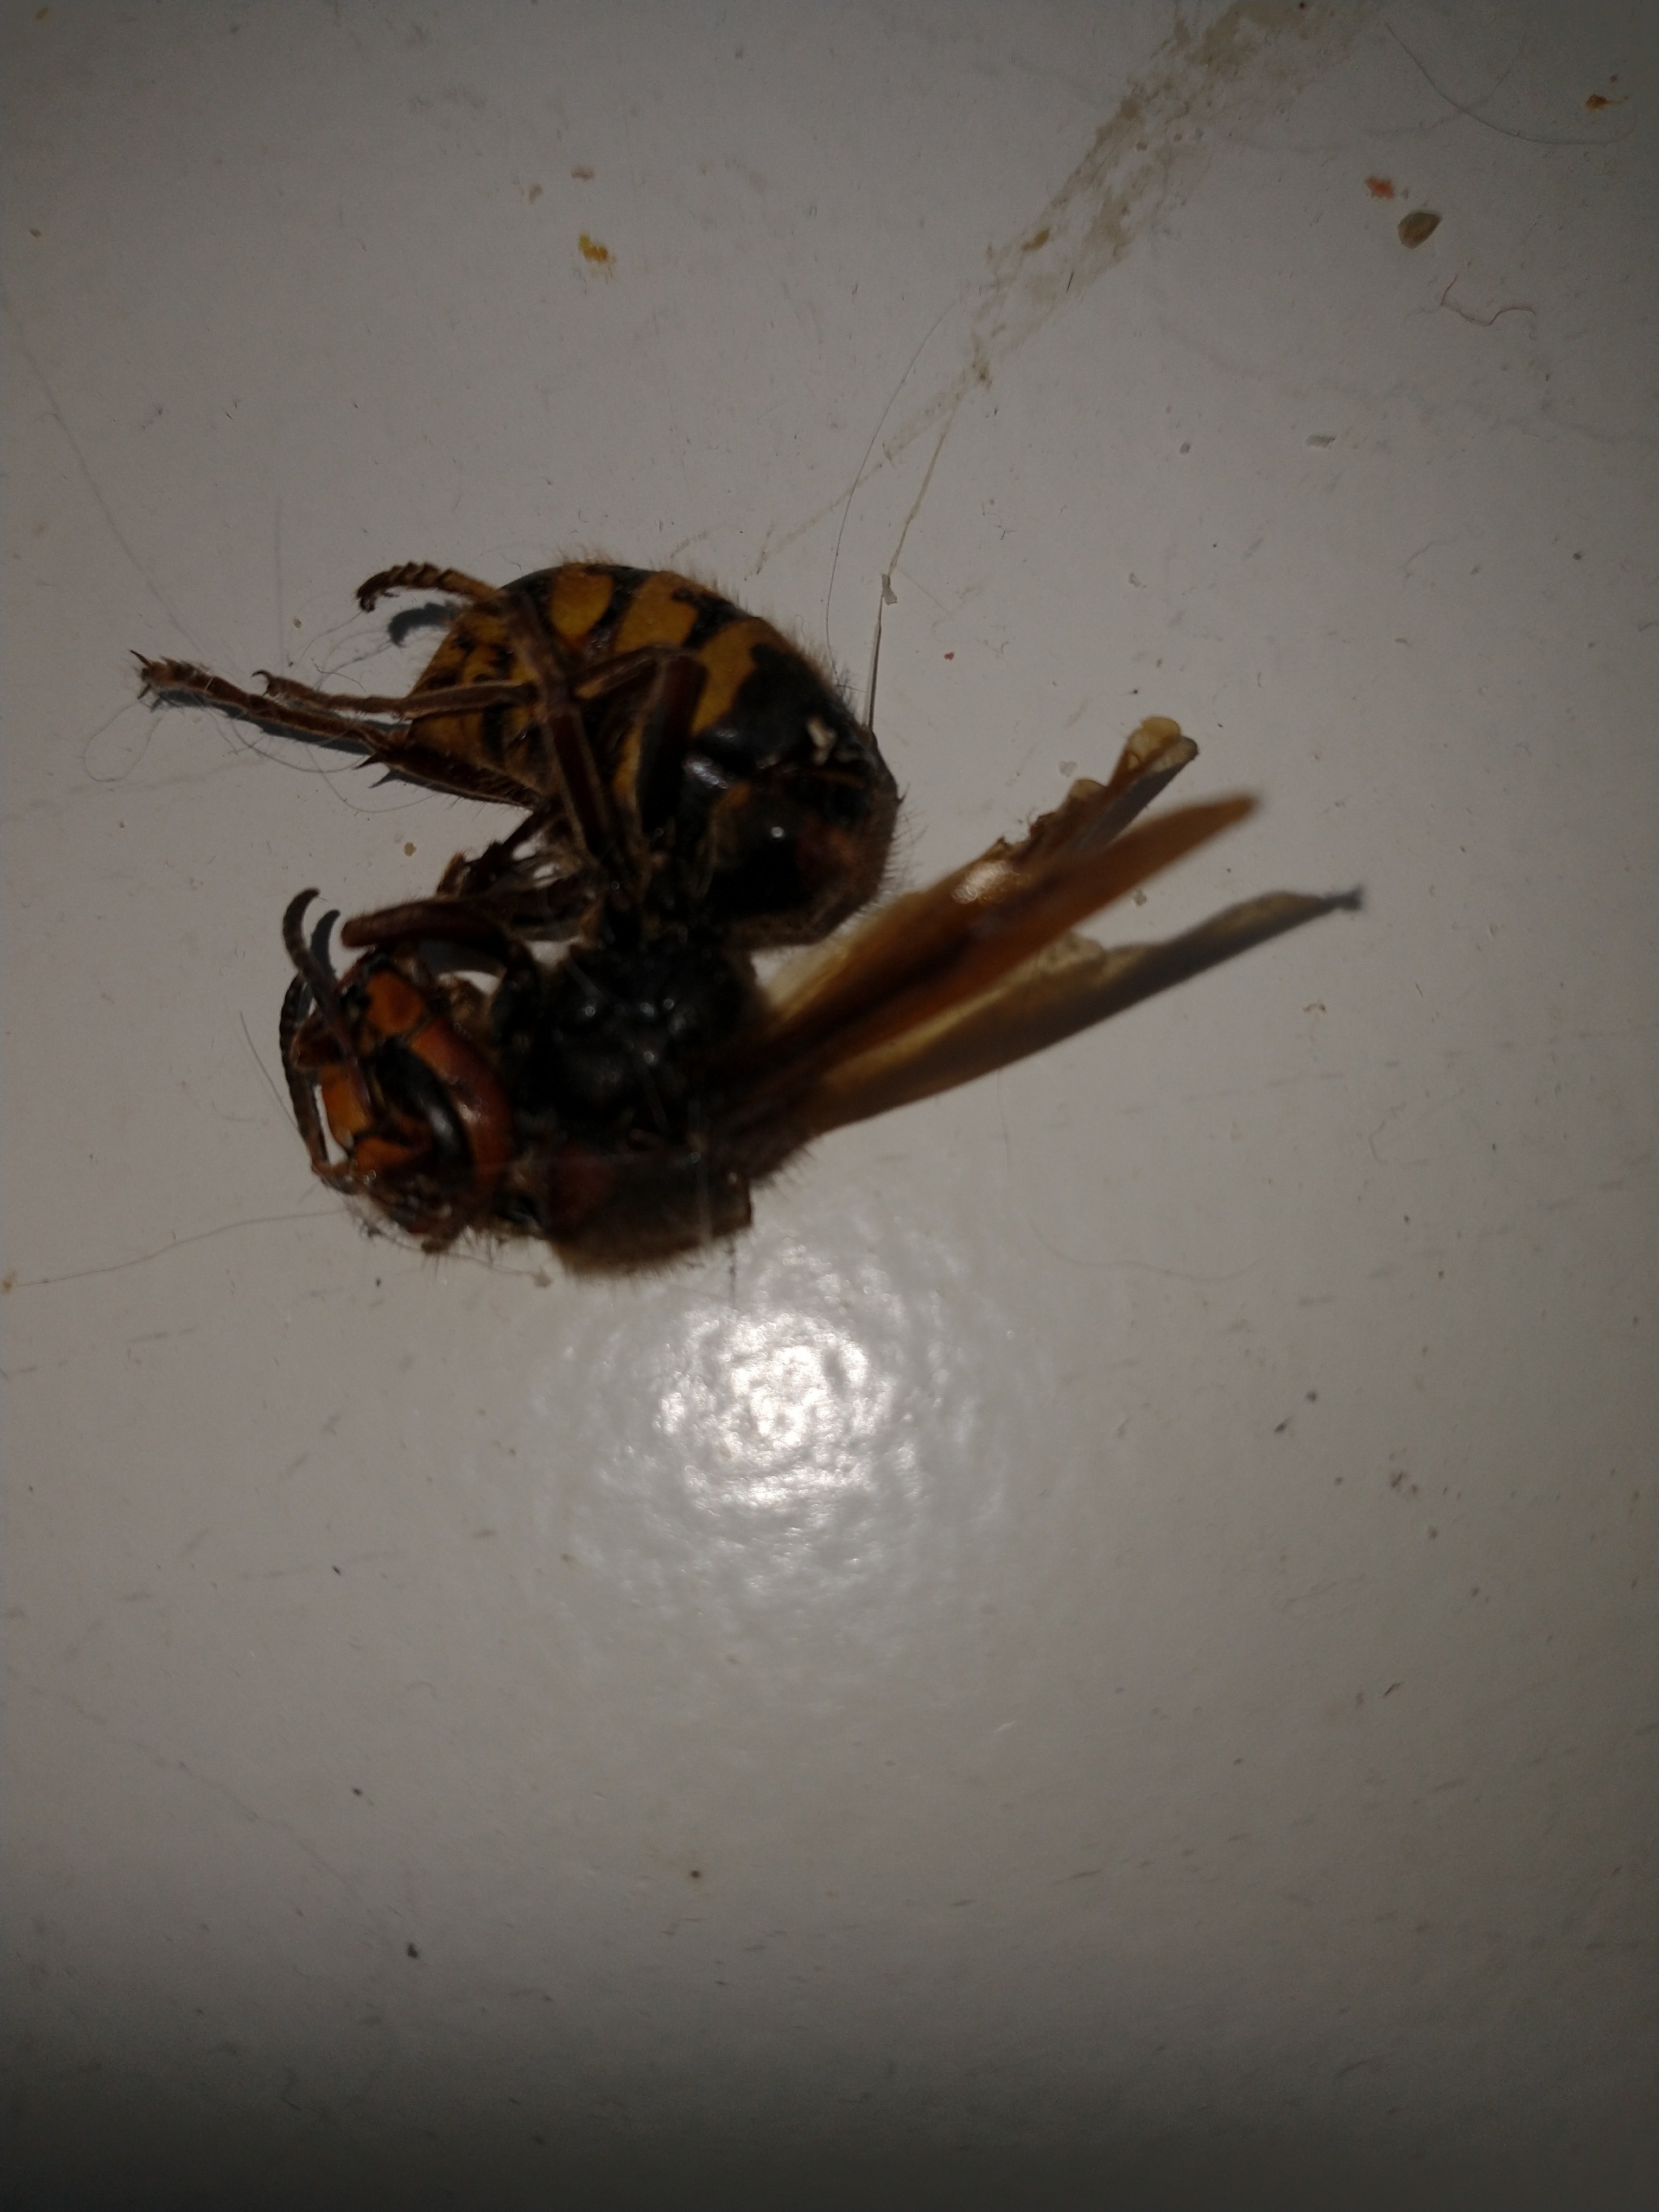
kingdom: Animalia
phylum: Arthropoda
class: Insecta
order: Hymenoptera
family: Vespidae
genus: Vespa
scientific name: Vespa crabro
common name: Stor gedehams
